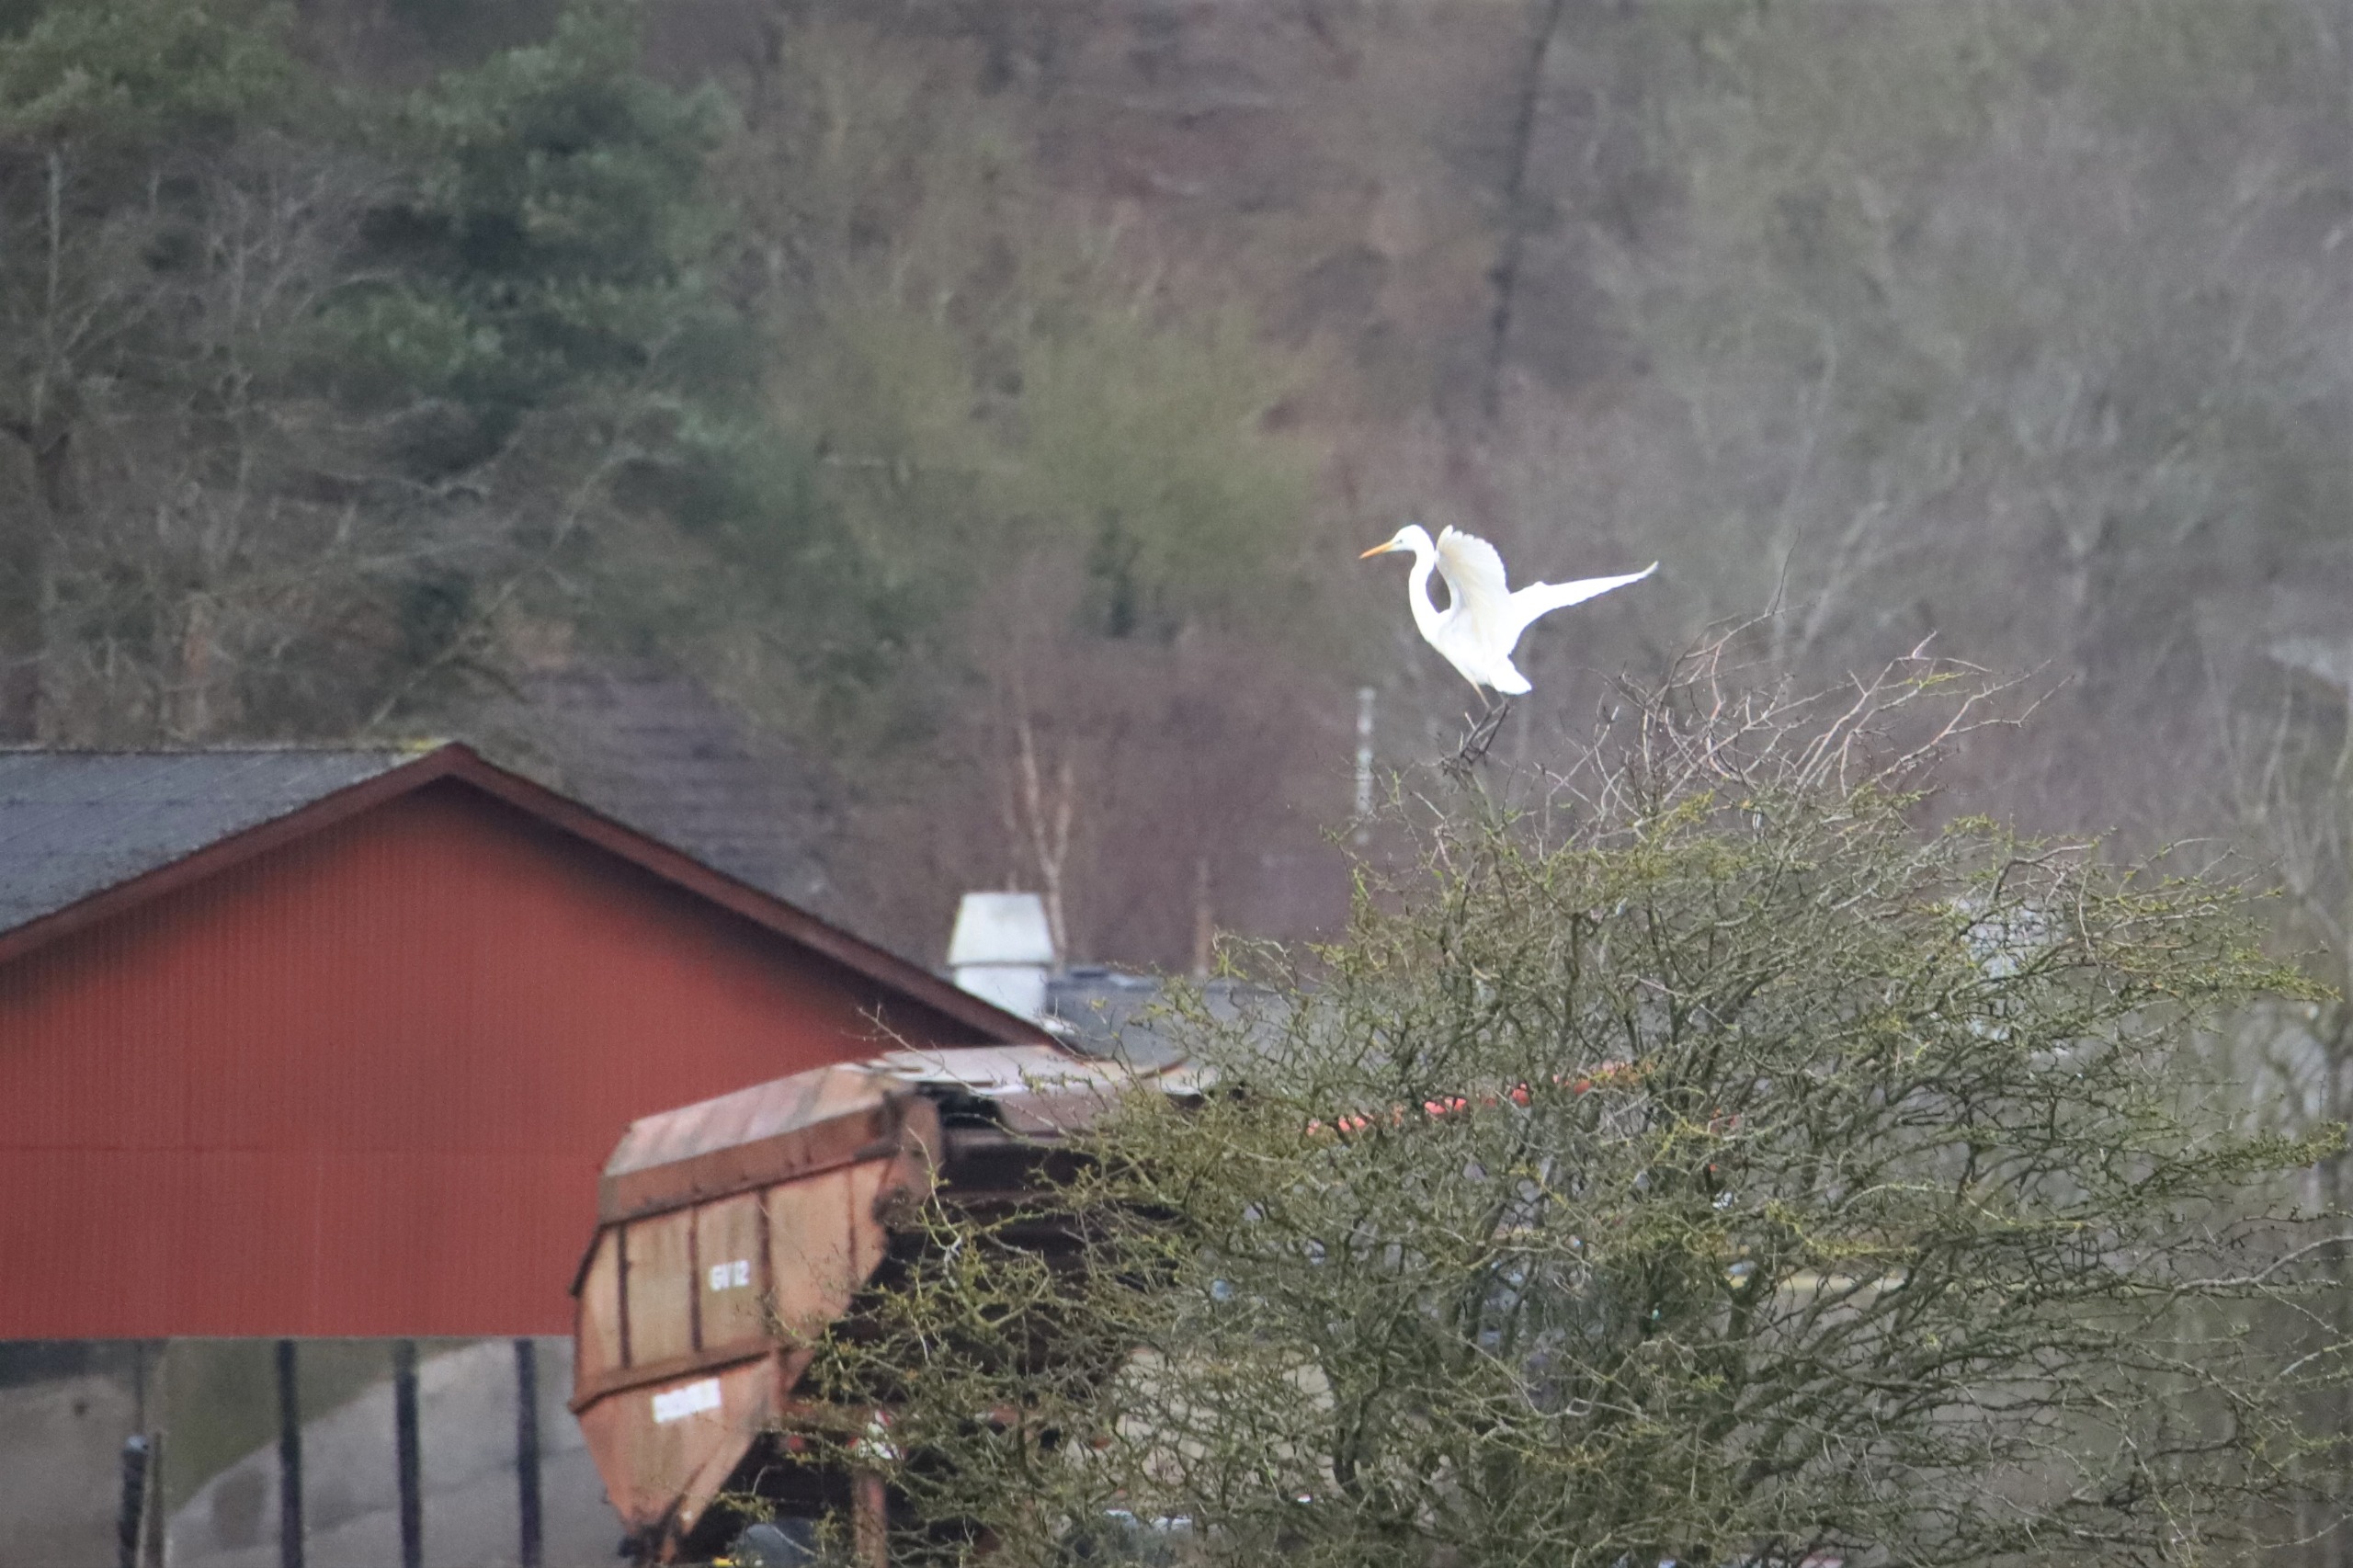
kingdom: Animalia
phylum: Chordata
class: Aves
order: Pelecaniformes
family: Ardeidae
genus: Ardea
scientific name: Ardea alba
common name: Sølvhejre
